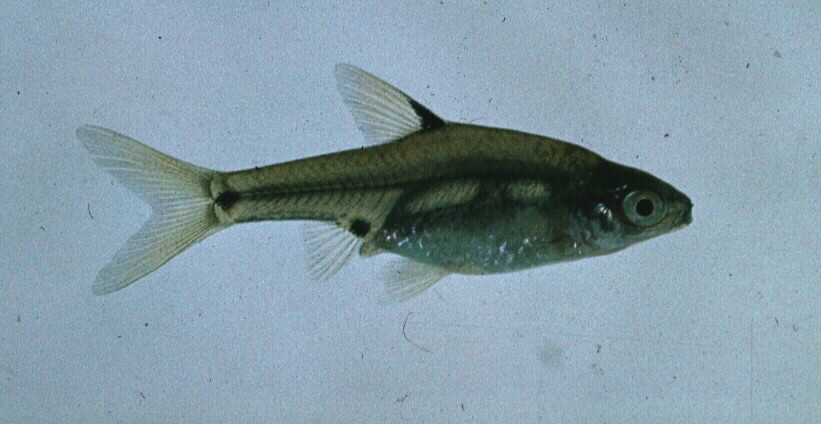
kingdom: Animalia
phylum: Chordata
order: Cypriniformes
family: Cyprinidae
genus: Enteromius
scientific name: Enteromius haasianus
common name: Sickle-fin barb
